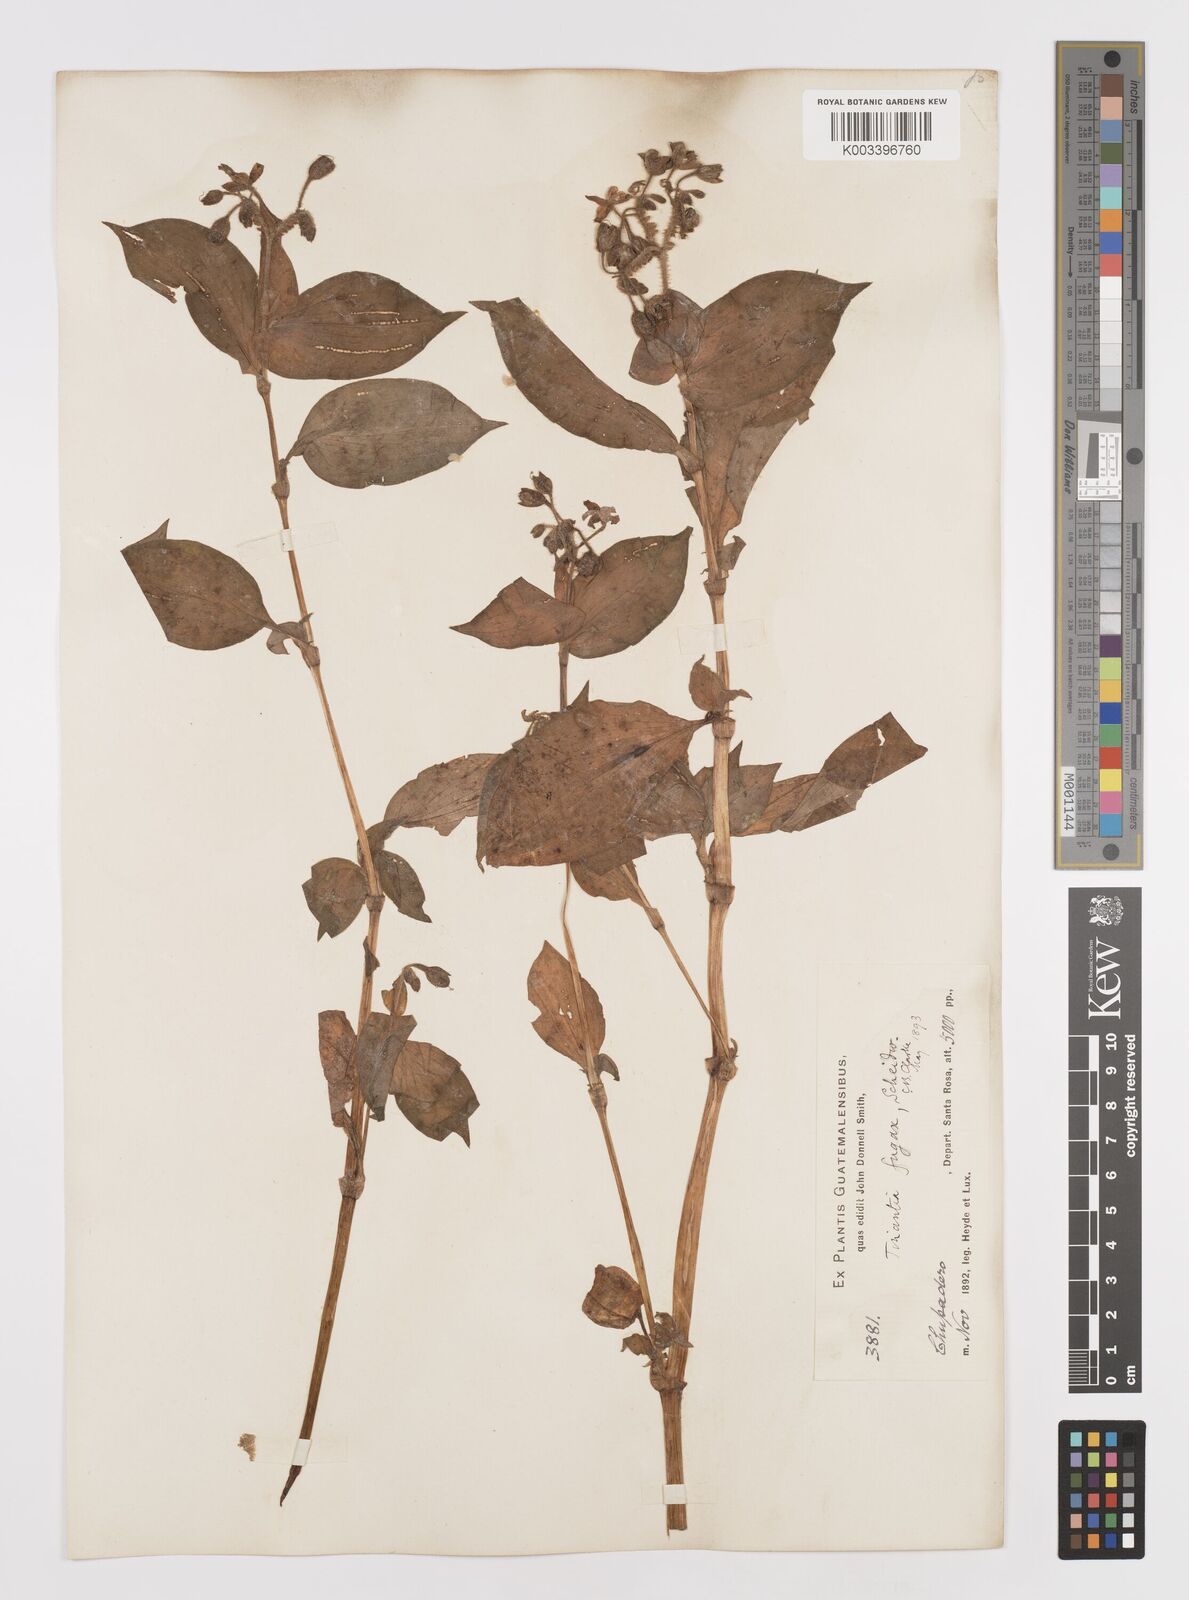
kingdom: Plantae
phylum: Tracheophyta
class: Liliopsida
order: Commelinales
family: Commelinaceae
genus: Tinantia
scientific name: Tinantia erecta
